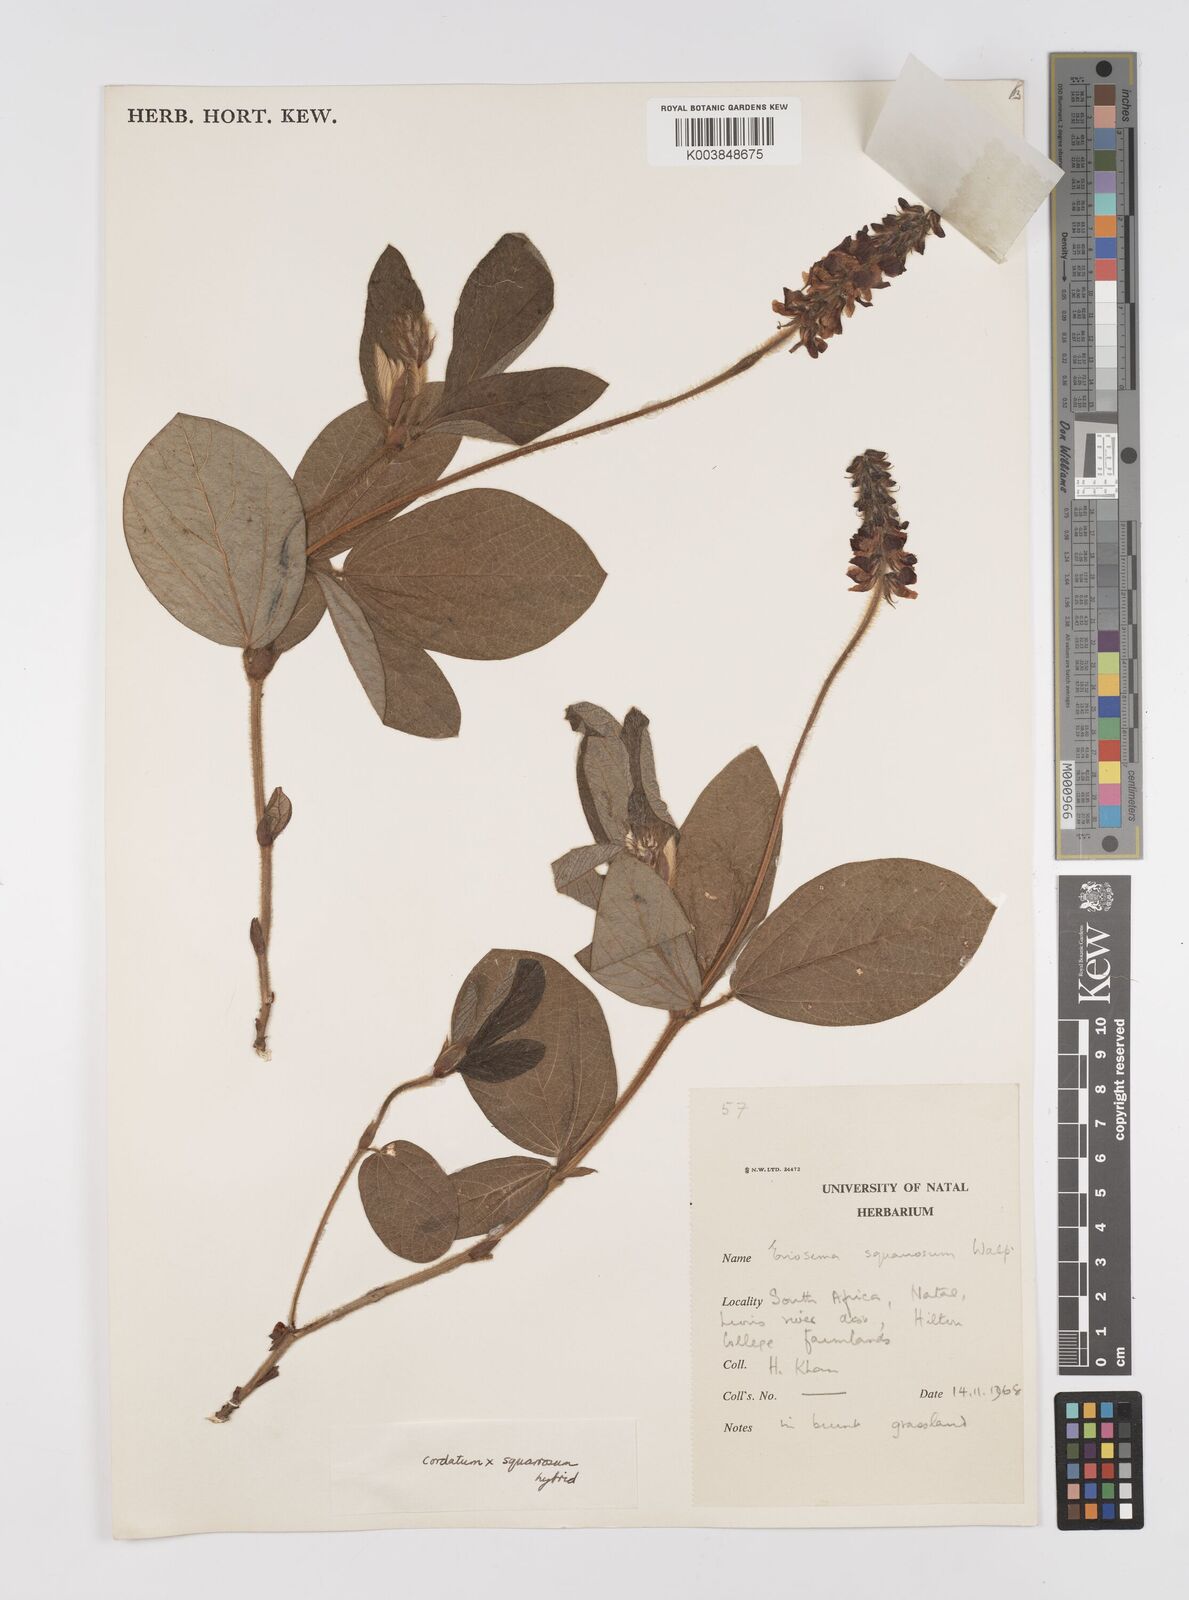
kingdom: Plantae
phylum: Tracheophyta
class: Magnoliopsida
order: Fabales
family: Fabaceae
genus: Eriosema
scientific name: Eriosema squarrosum
